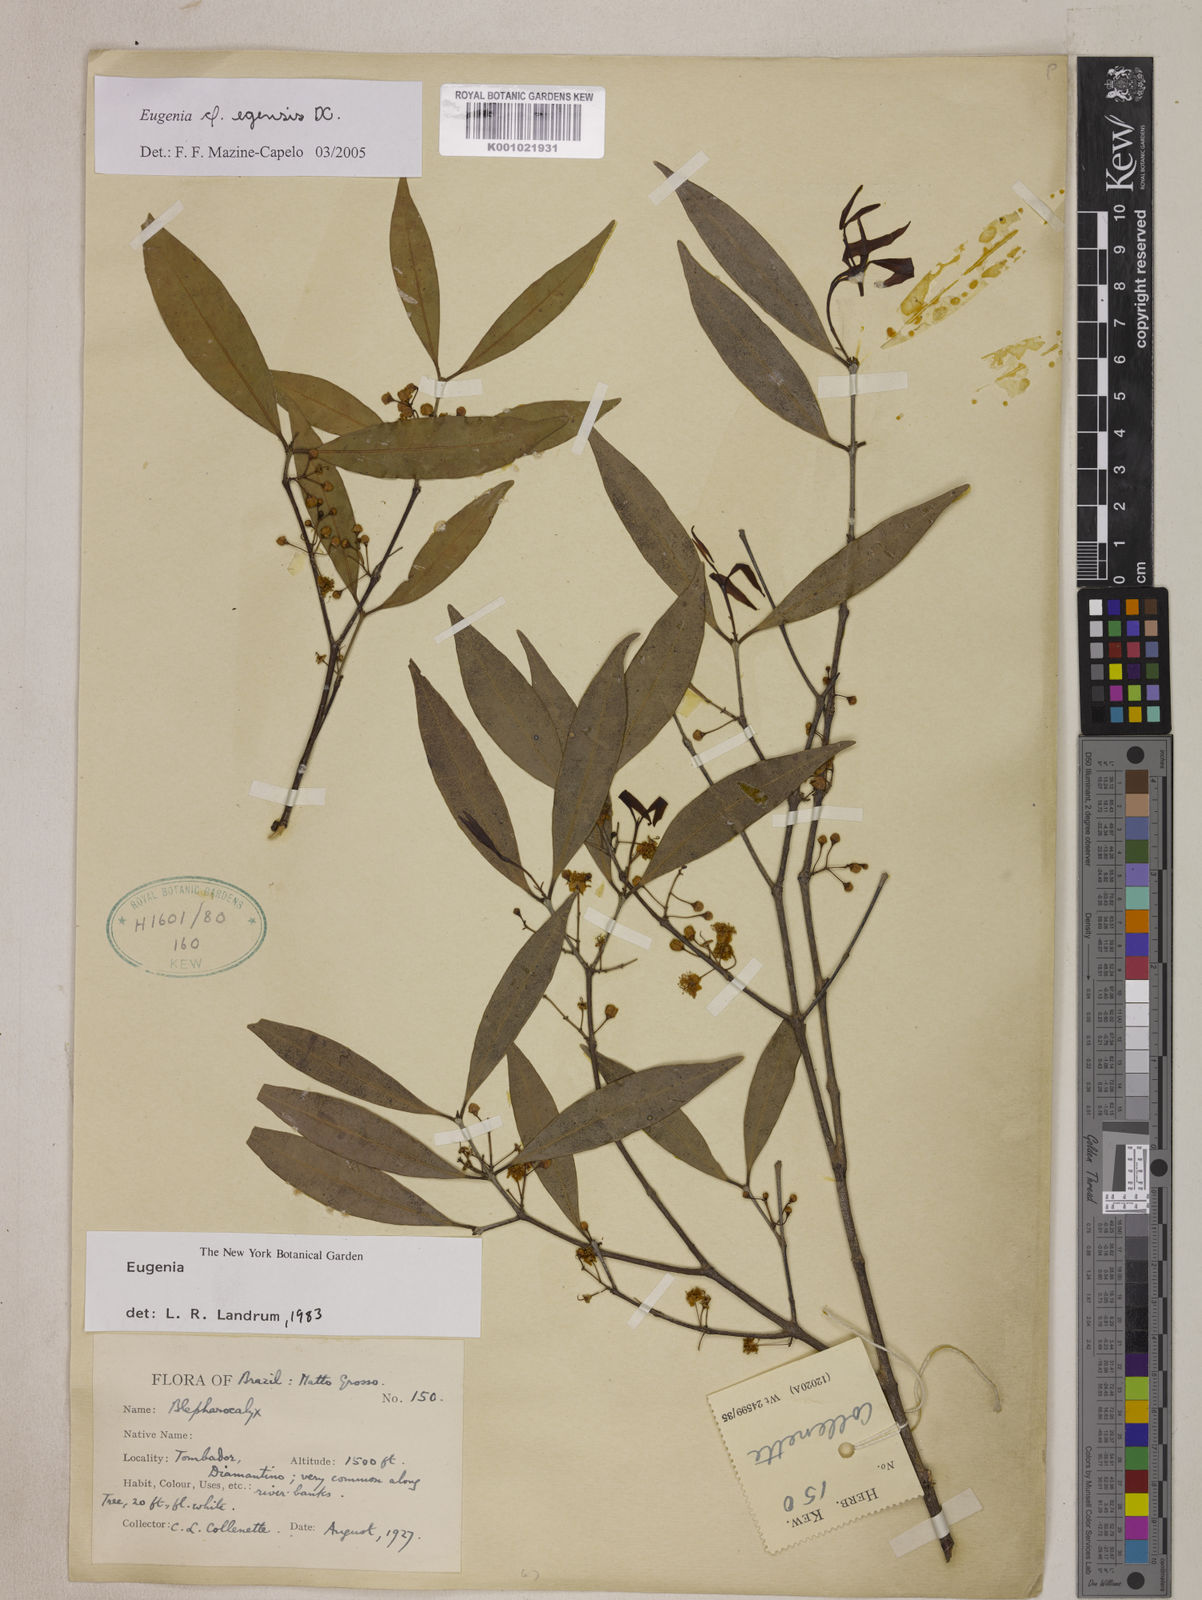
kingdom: Plantae
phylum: Tracheophyta
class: Magnoliopsida
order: Myrtales
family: Myrtaceae
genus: Eugenia
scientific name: Eugenia egensis
